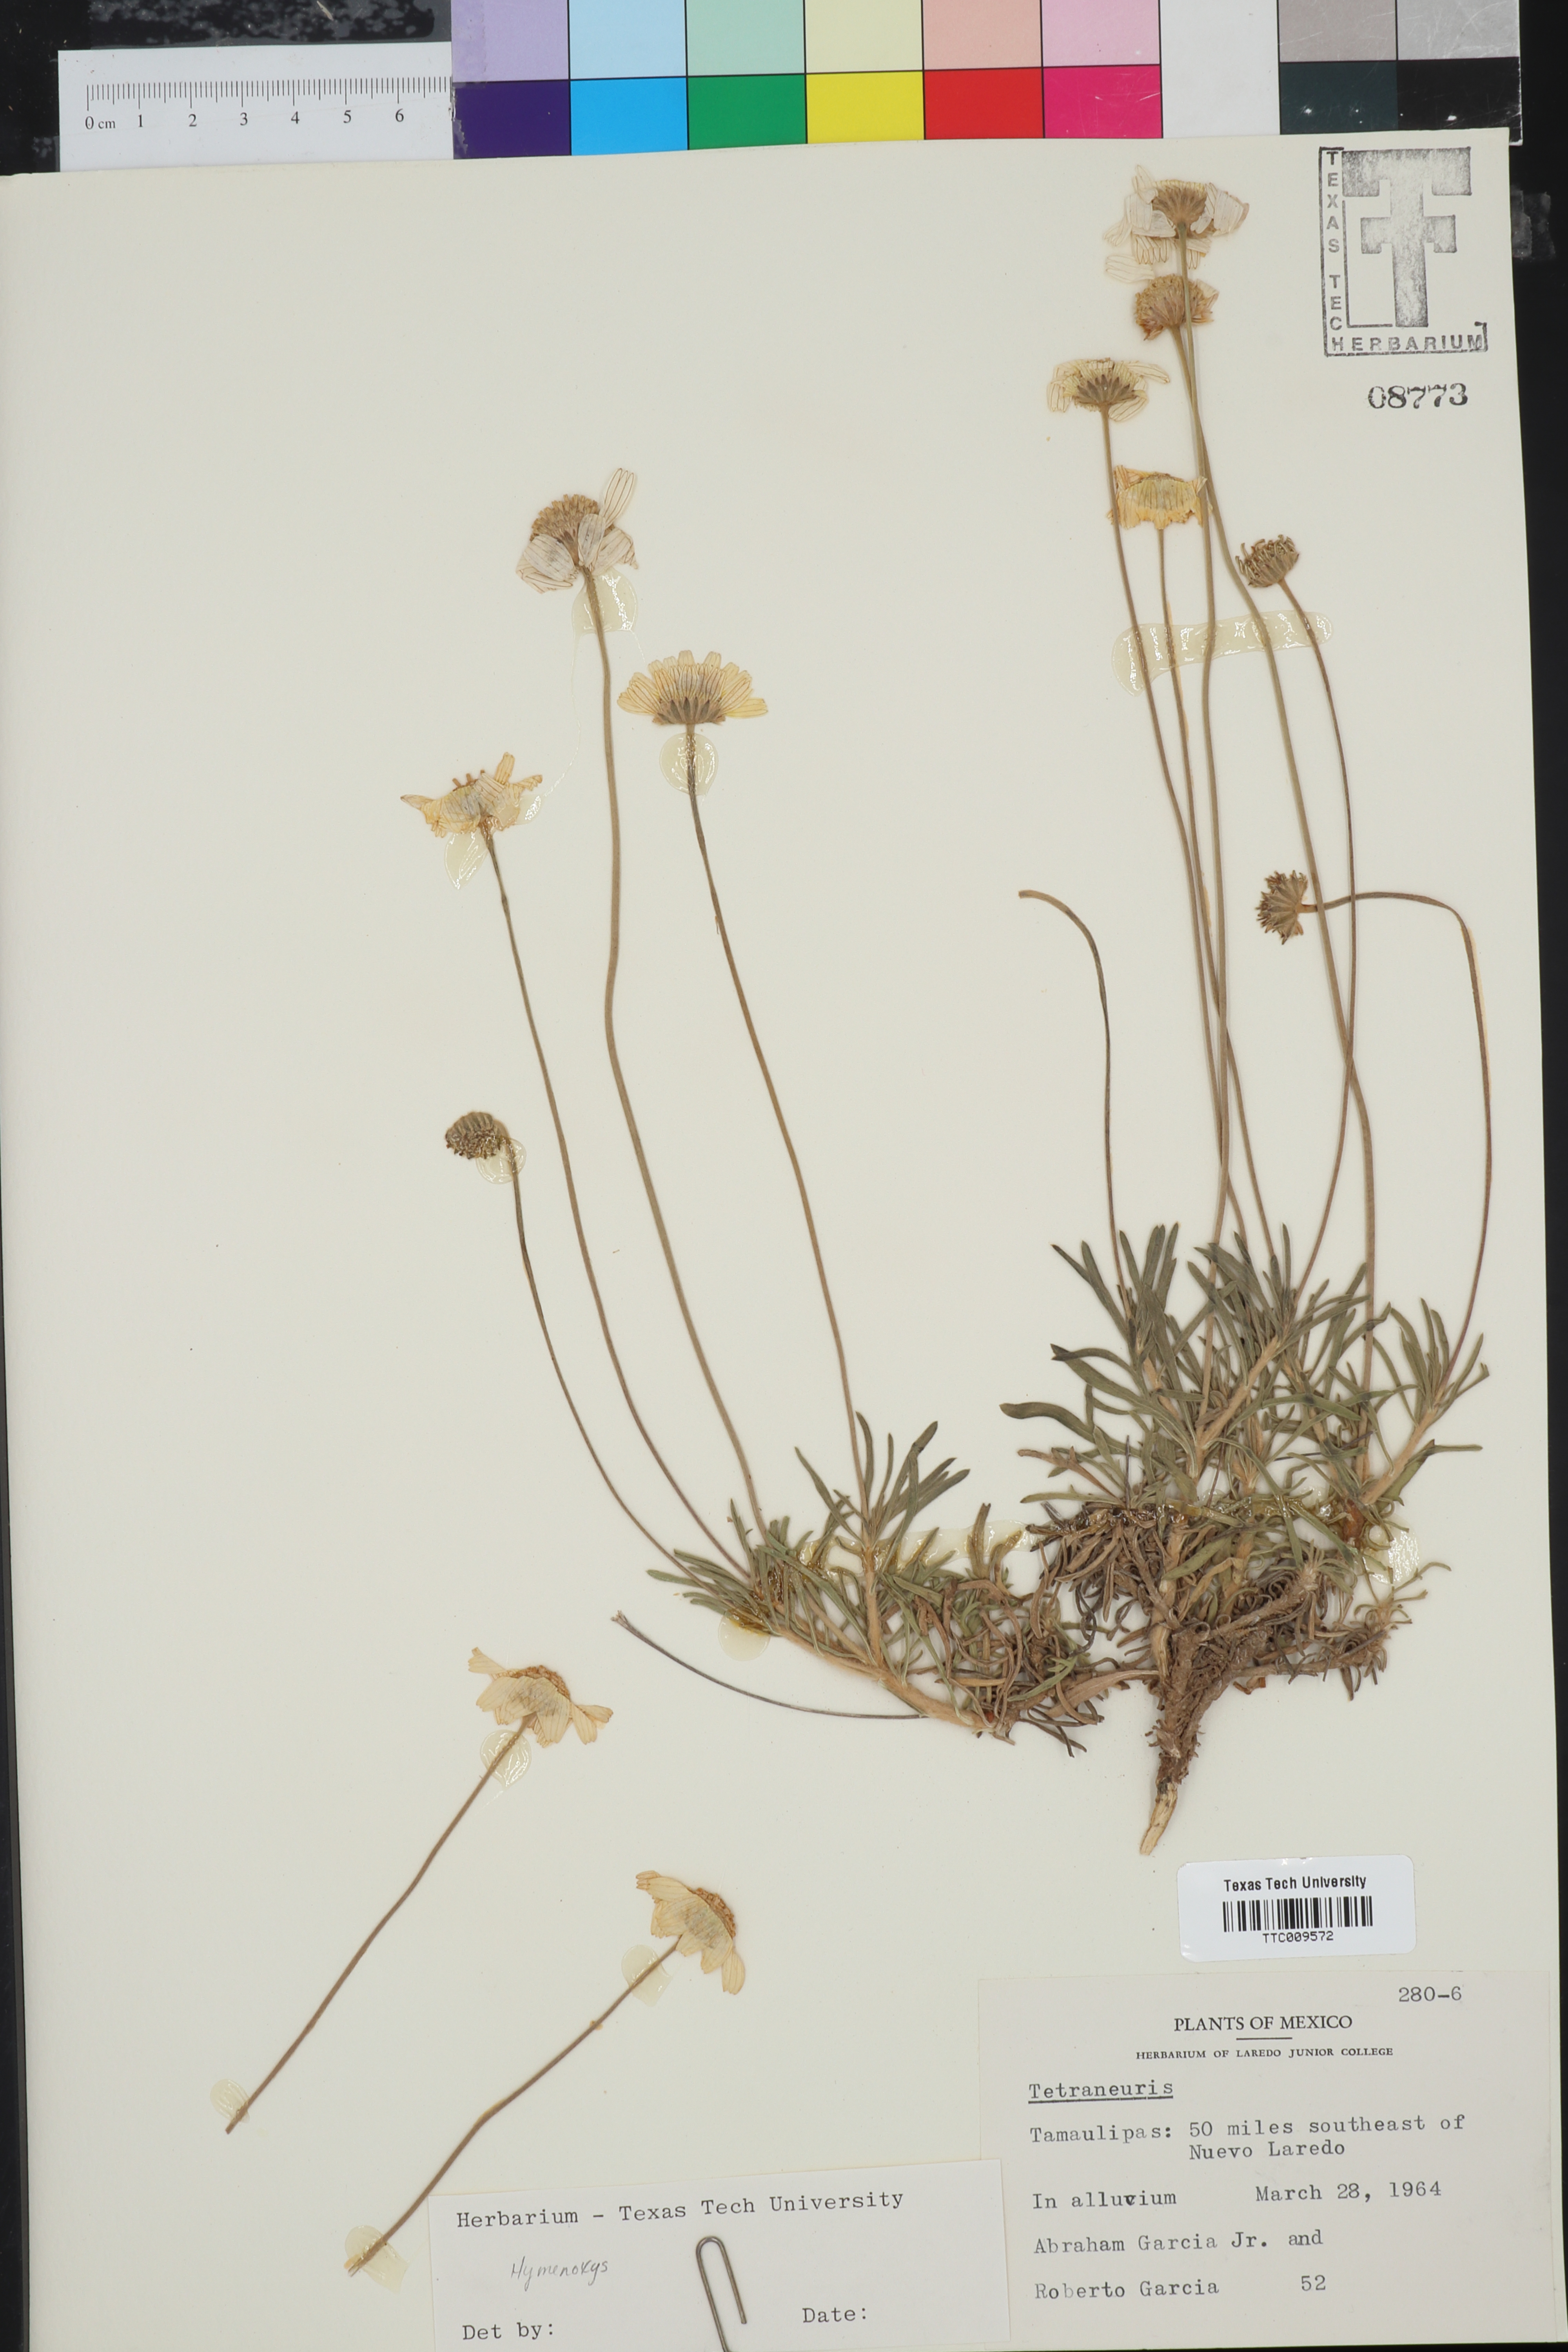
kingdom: Plantae
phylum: Tracheophyta
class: Magnoliopsida
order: Asterales
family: Asteraceae
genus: Hymenoxys
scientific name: Hymenoxys
